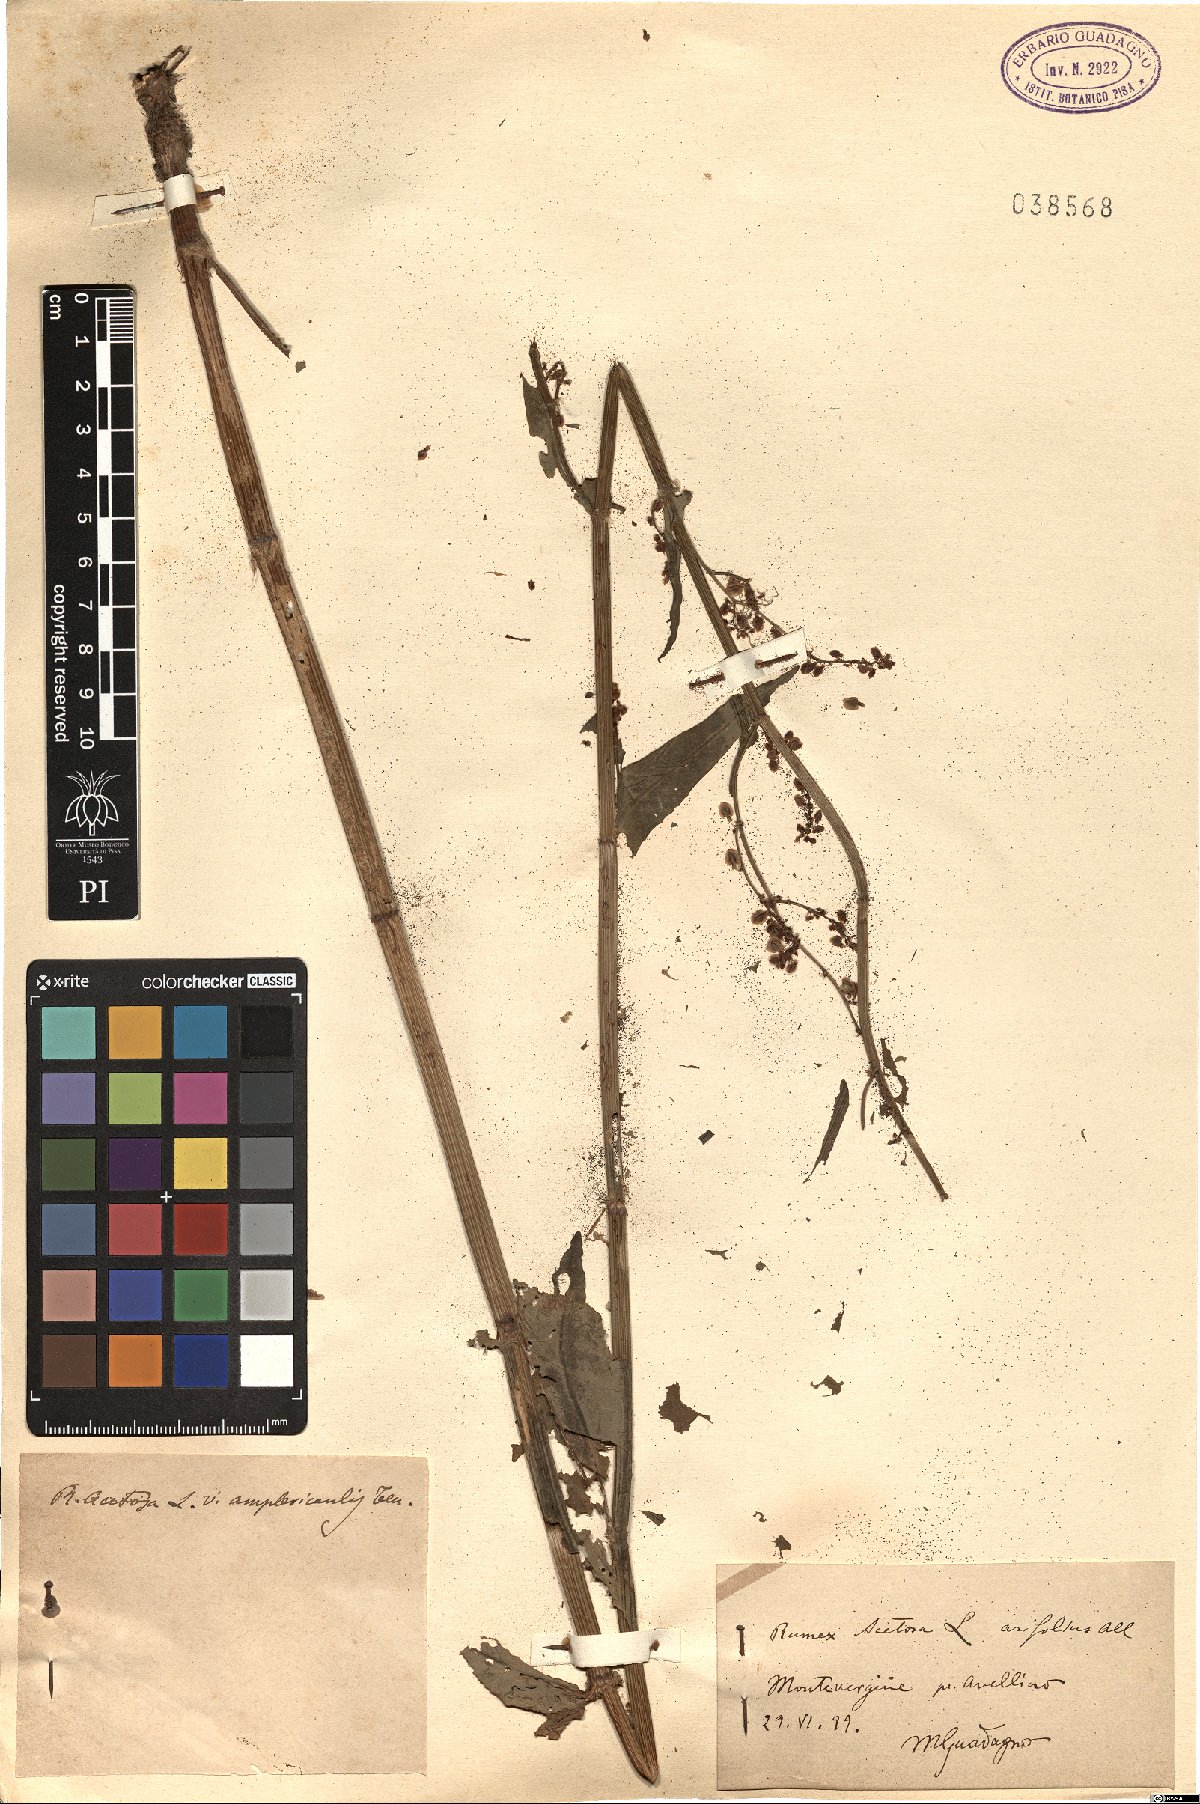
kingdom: Plantae
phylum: Tracheophyta
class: Magnoliopsida
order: Caryophyllales
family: Polygonaceae
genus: Rumex
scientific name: Rumex arifolius
